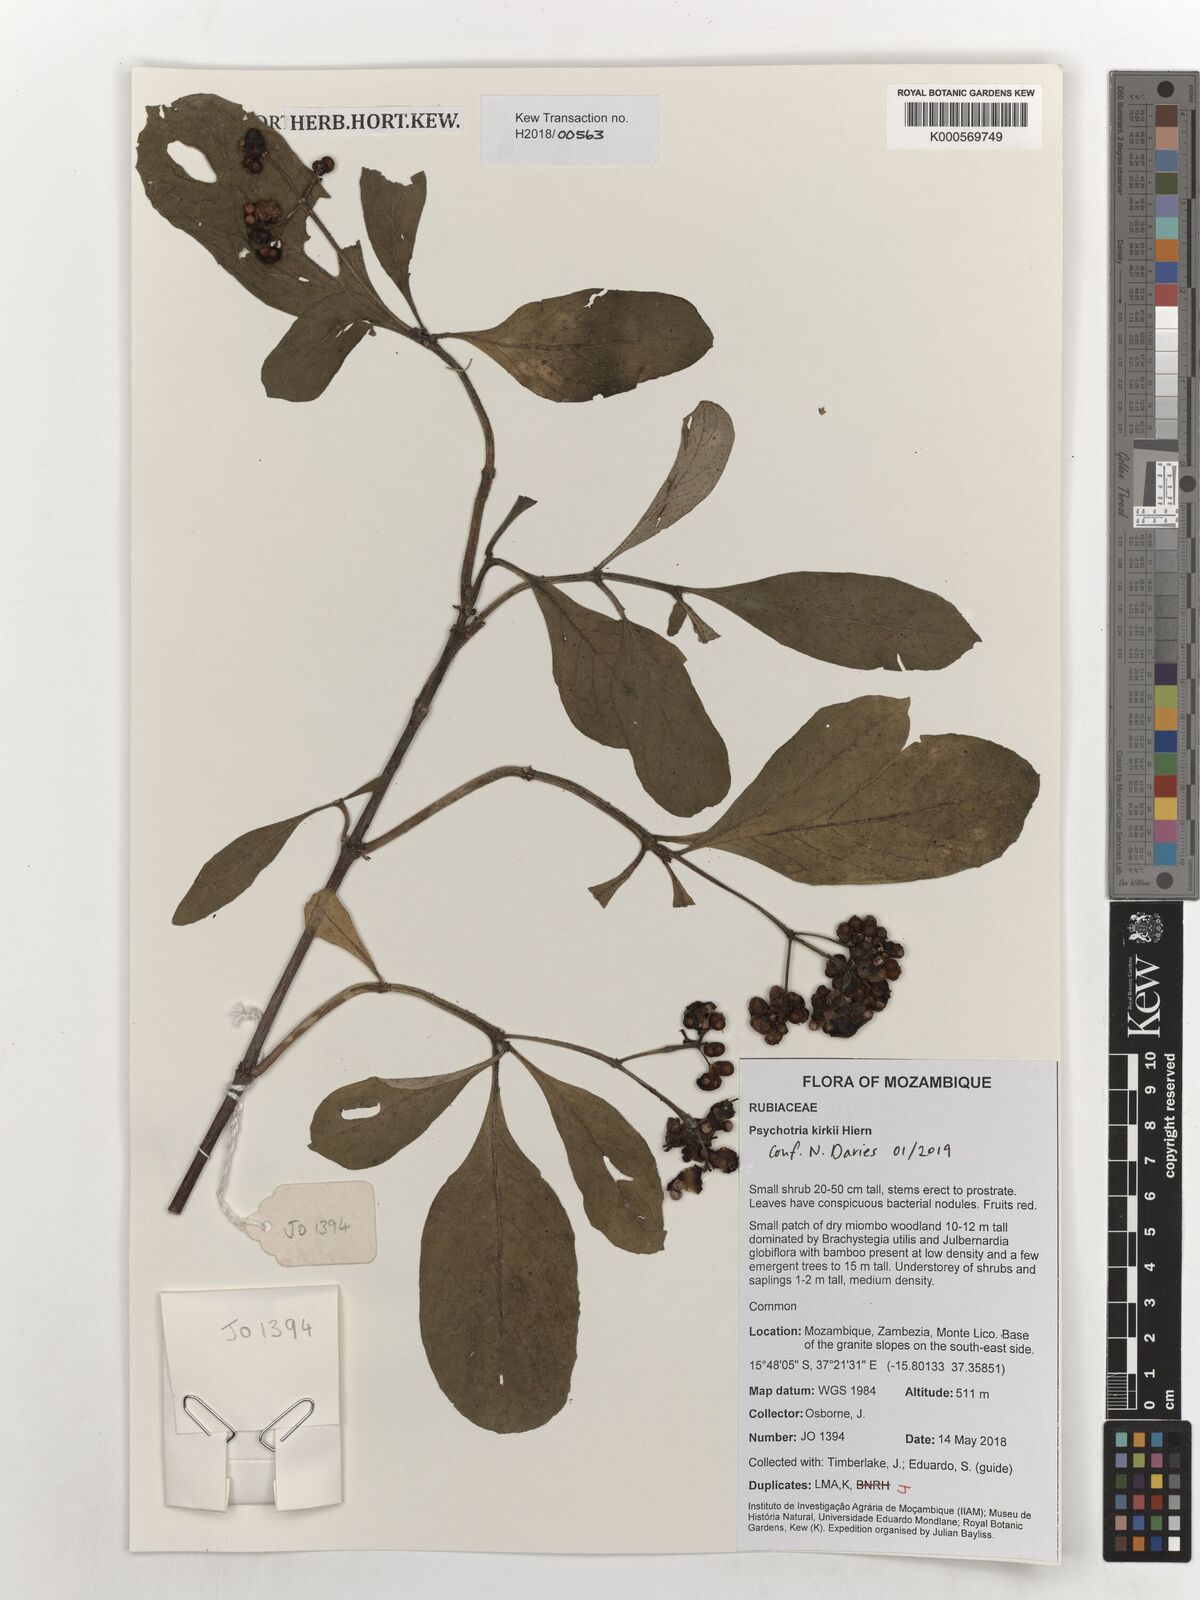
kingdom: Plantae
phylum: Tracheophyta
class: Magnoliopsida
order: Gentianales
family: Rubiaceae
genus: Psychotria
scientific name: Psychotria punctata
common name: Dotted wild coffee
